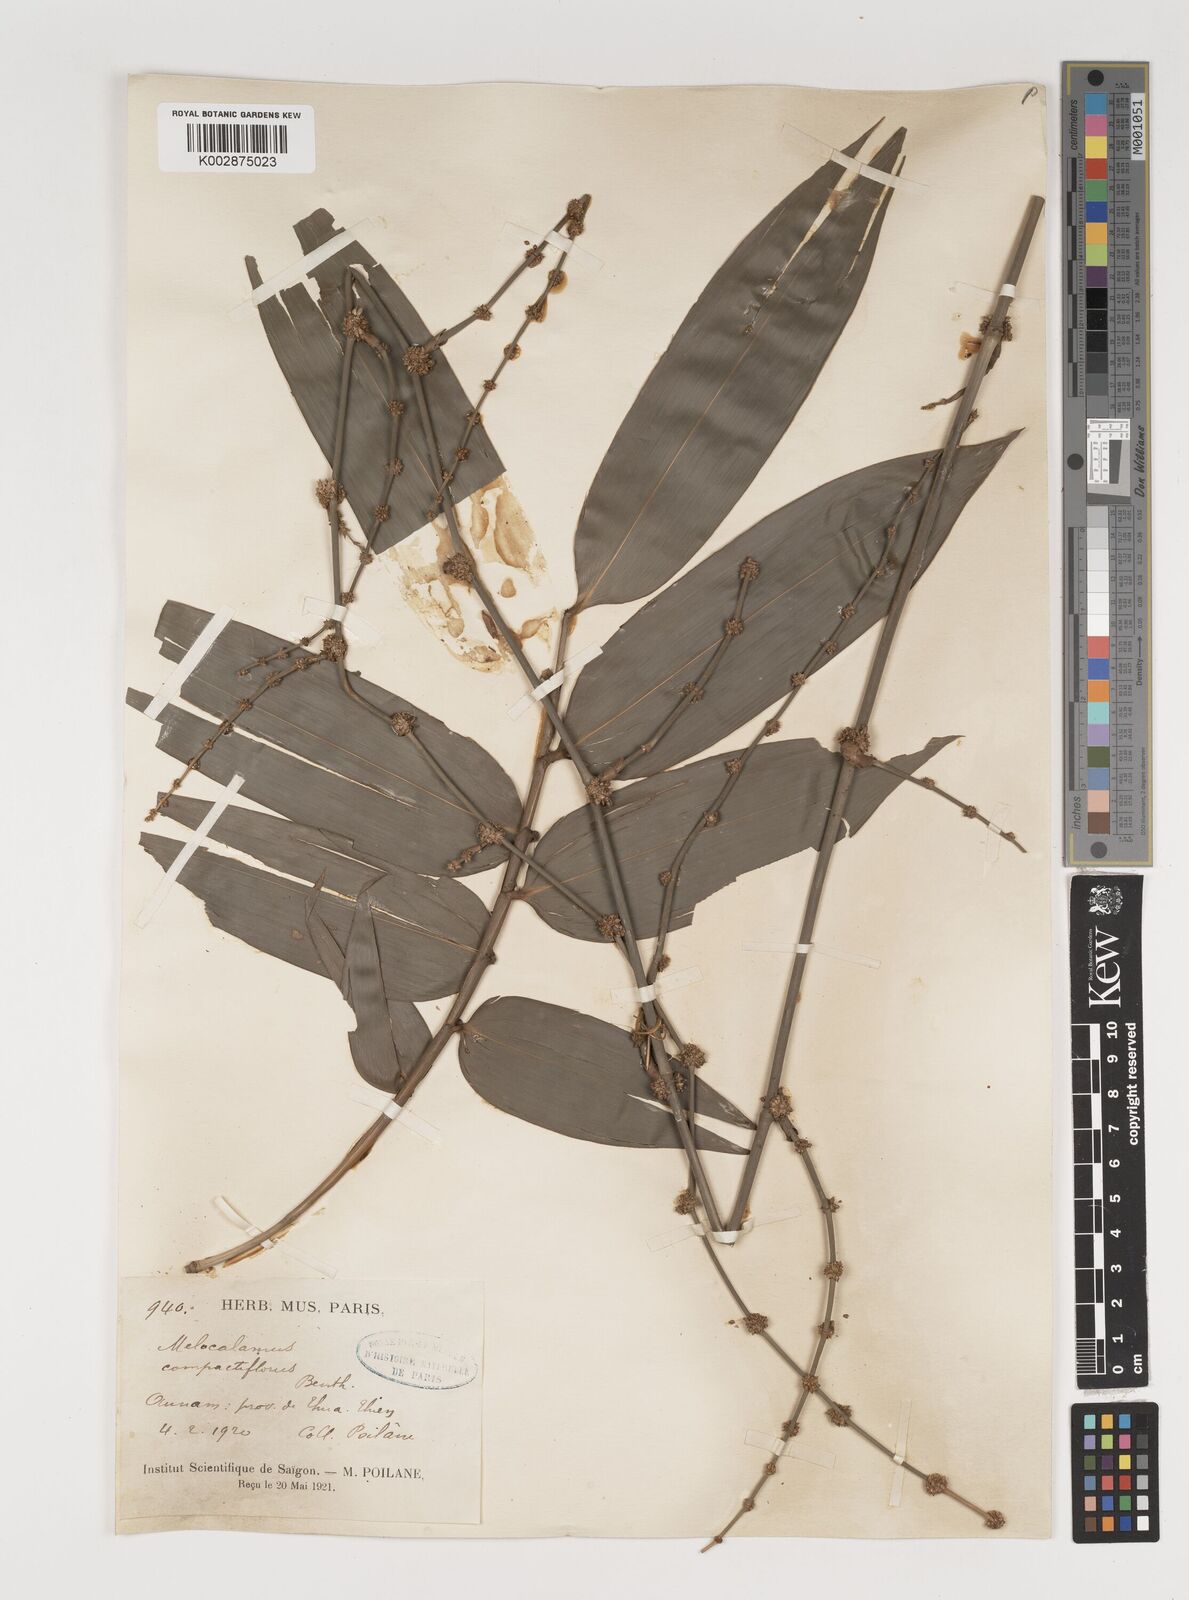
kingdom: Plantae
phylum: Tracheophyta
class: Liliopsida
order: Poales
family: Poaceae
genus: Melocalamus
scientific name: Melocalamus compactiflorus
